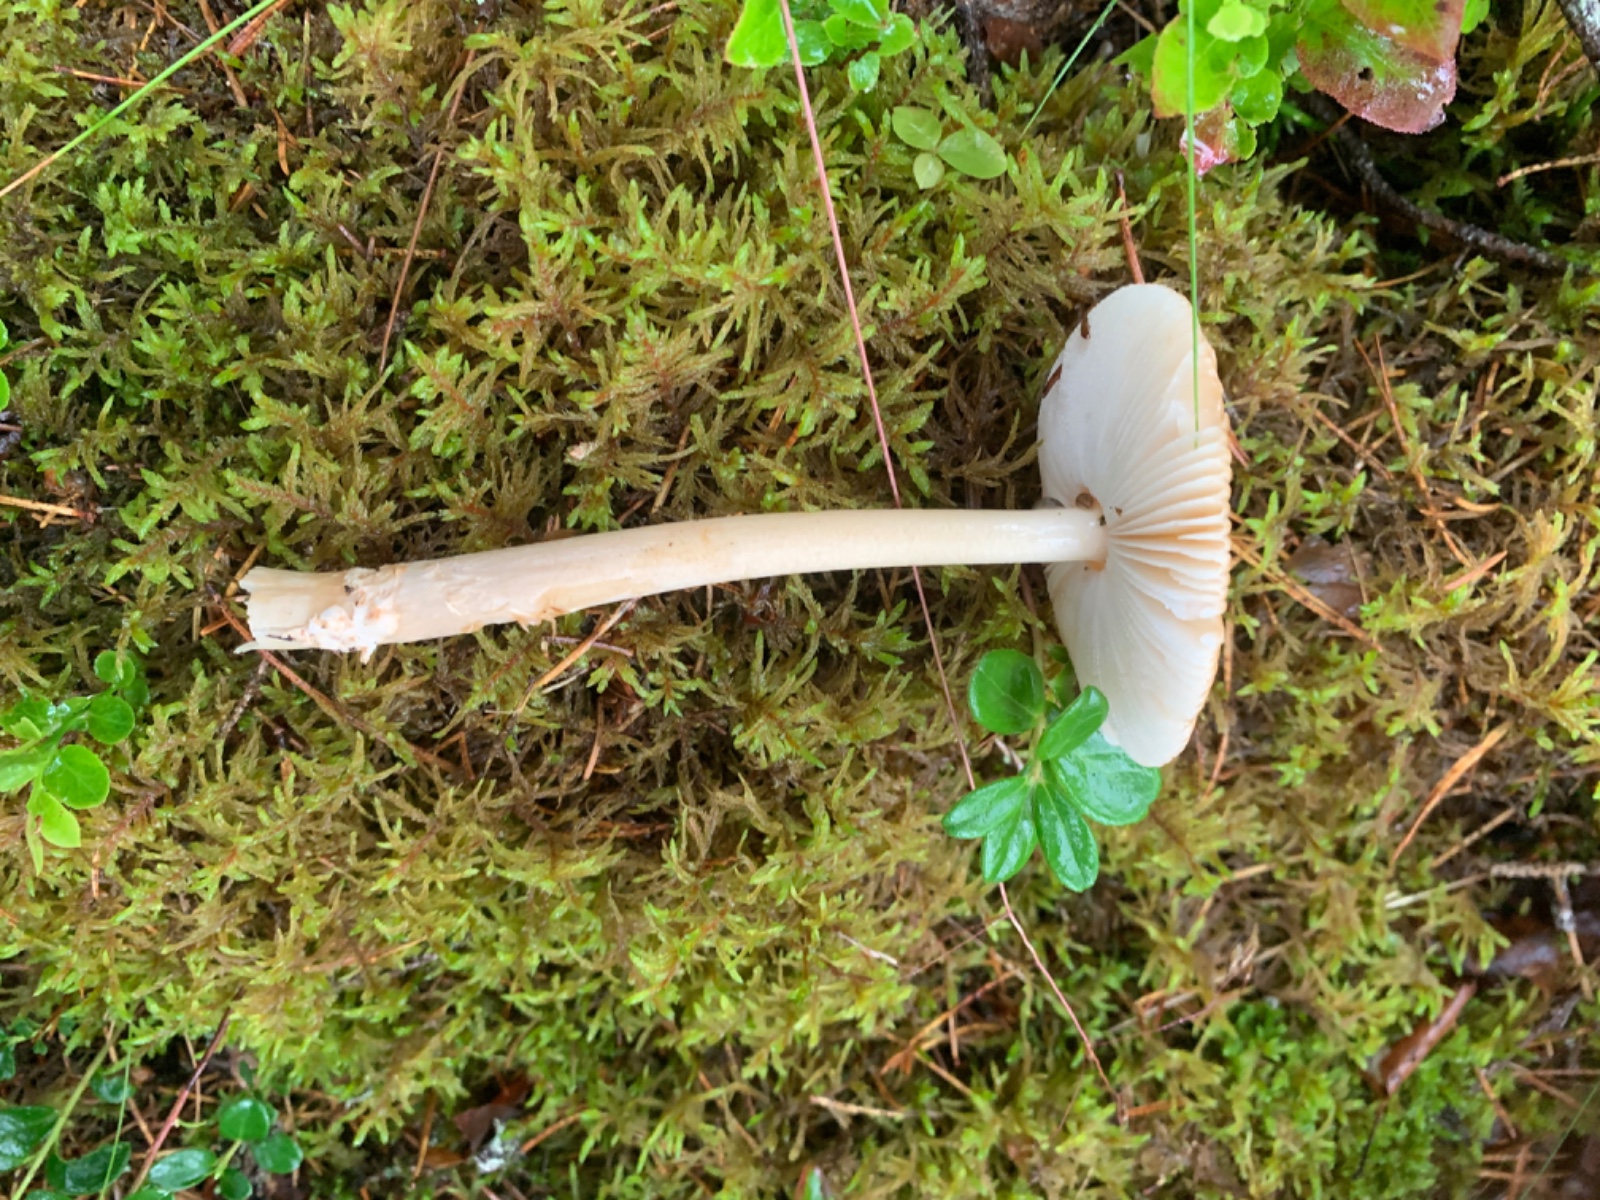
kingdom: Fungi
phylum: Basidiomycota
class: Agaricomycetes
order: Agaricales
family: Amanitaceae
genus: Amanita
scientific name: Amanita fulva
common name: brun kam-fluesvamp
